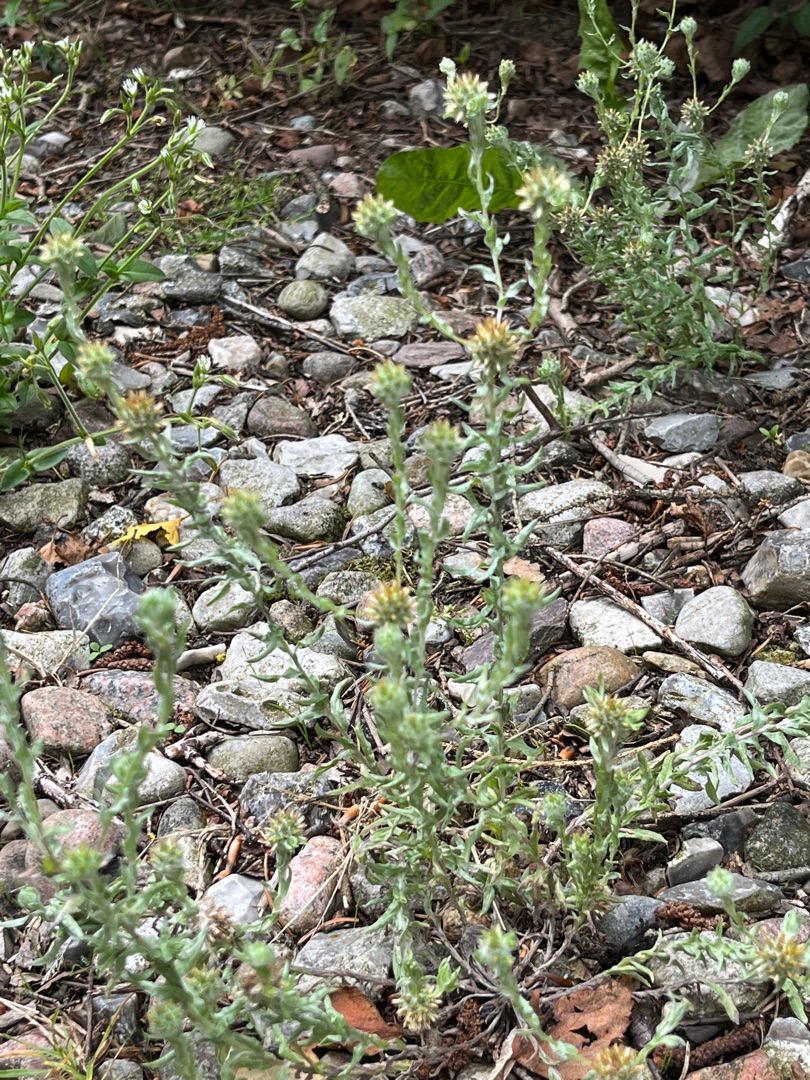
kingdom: Plantae
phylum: Tracheophyta
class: Magnoliopsida
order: Asterales
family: Asteraceae
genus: Filago
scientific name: Filago germanica
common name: Kugle-museurt
